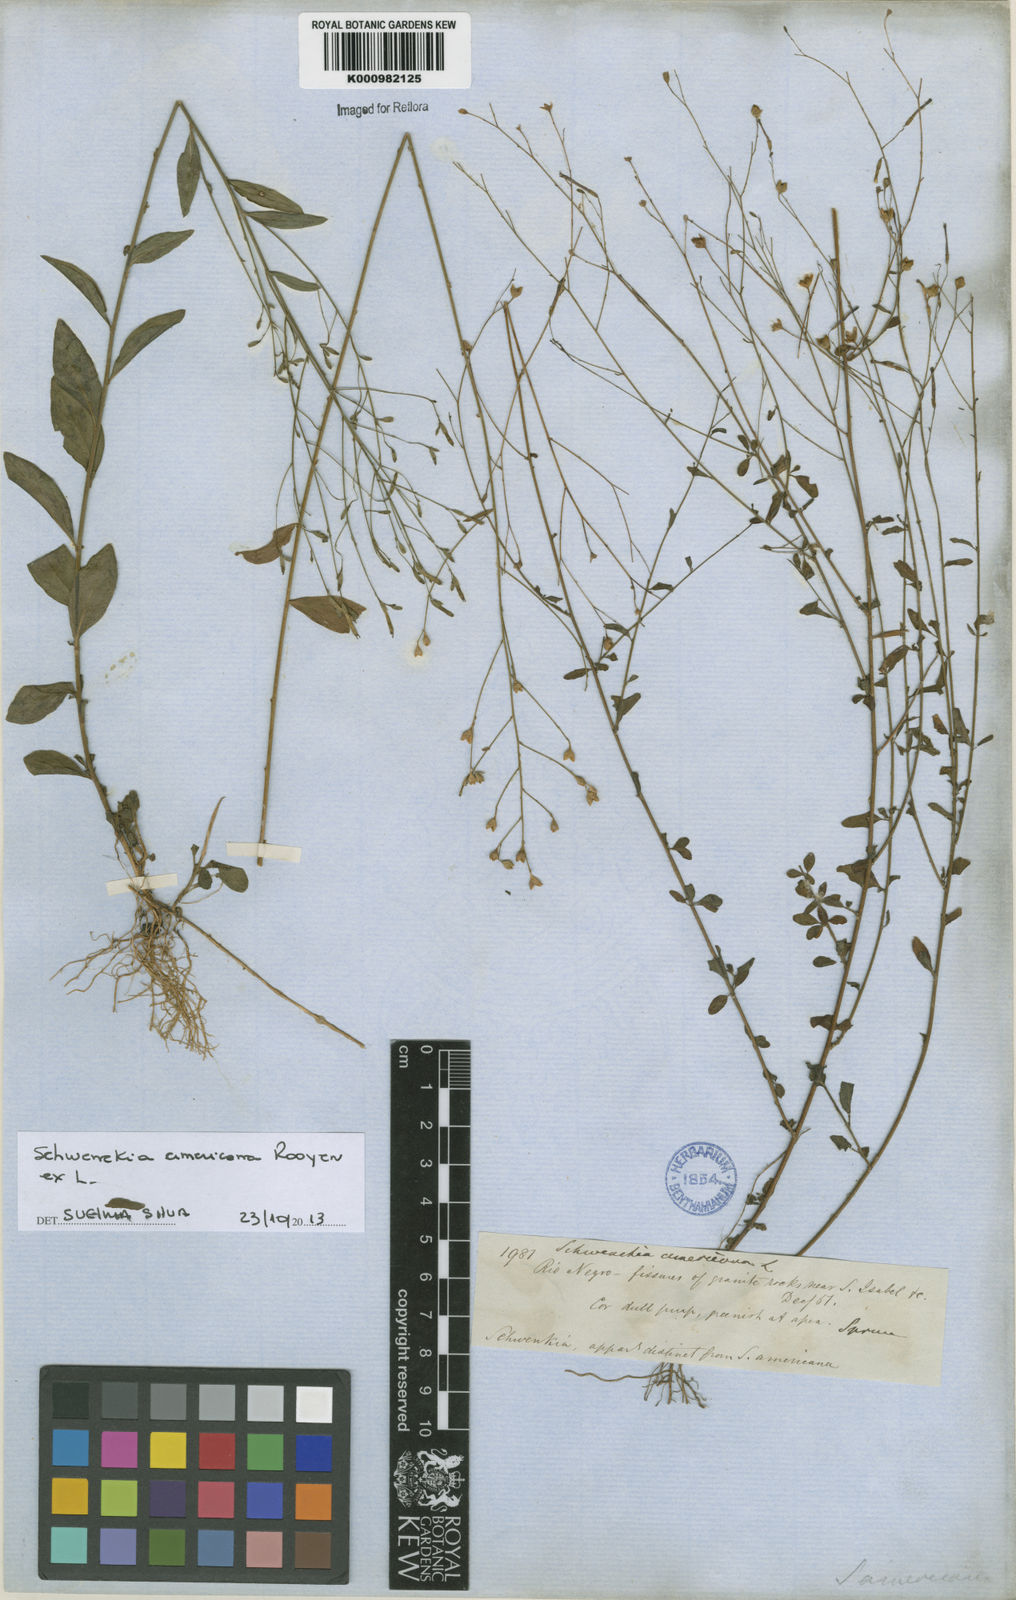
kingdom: Plantae
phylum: Tracheophyta
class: Magnoliopsida
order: Solanales
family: Solanaceae
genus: Schwenckia
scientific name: Schwenckia americana
